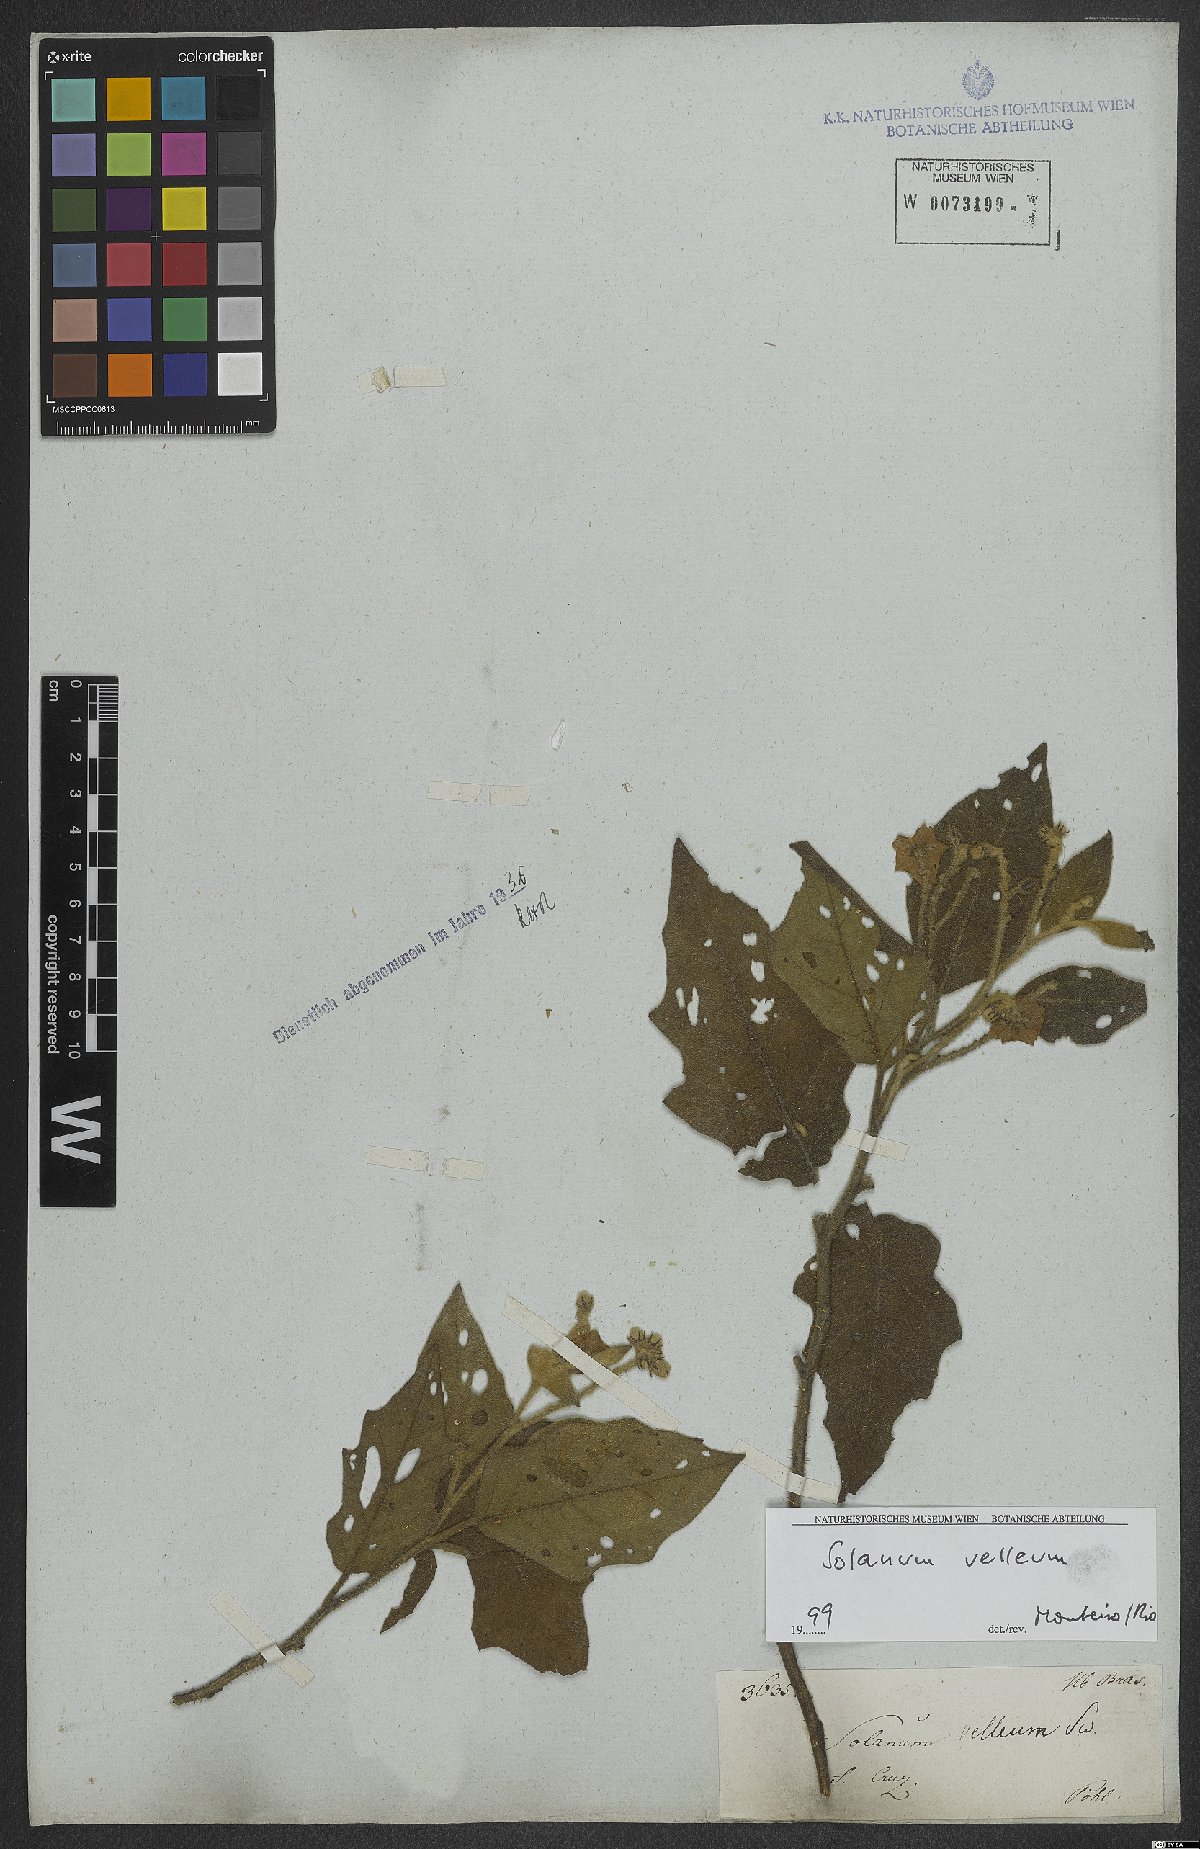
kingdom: Plantae
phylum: Tracheophyta
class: Magnoliopsida
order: Solanales
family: Solanaceae
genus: Solanum
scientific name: Solanum velleum
